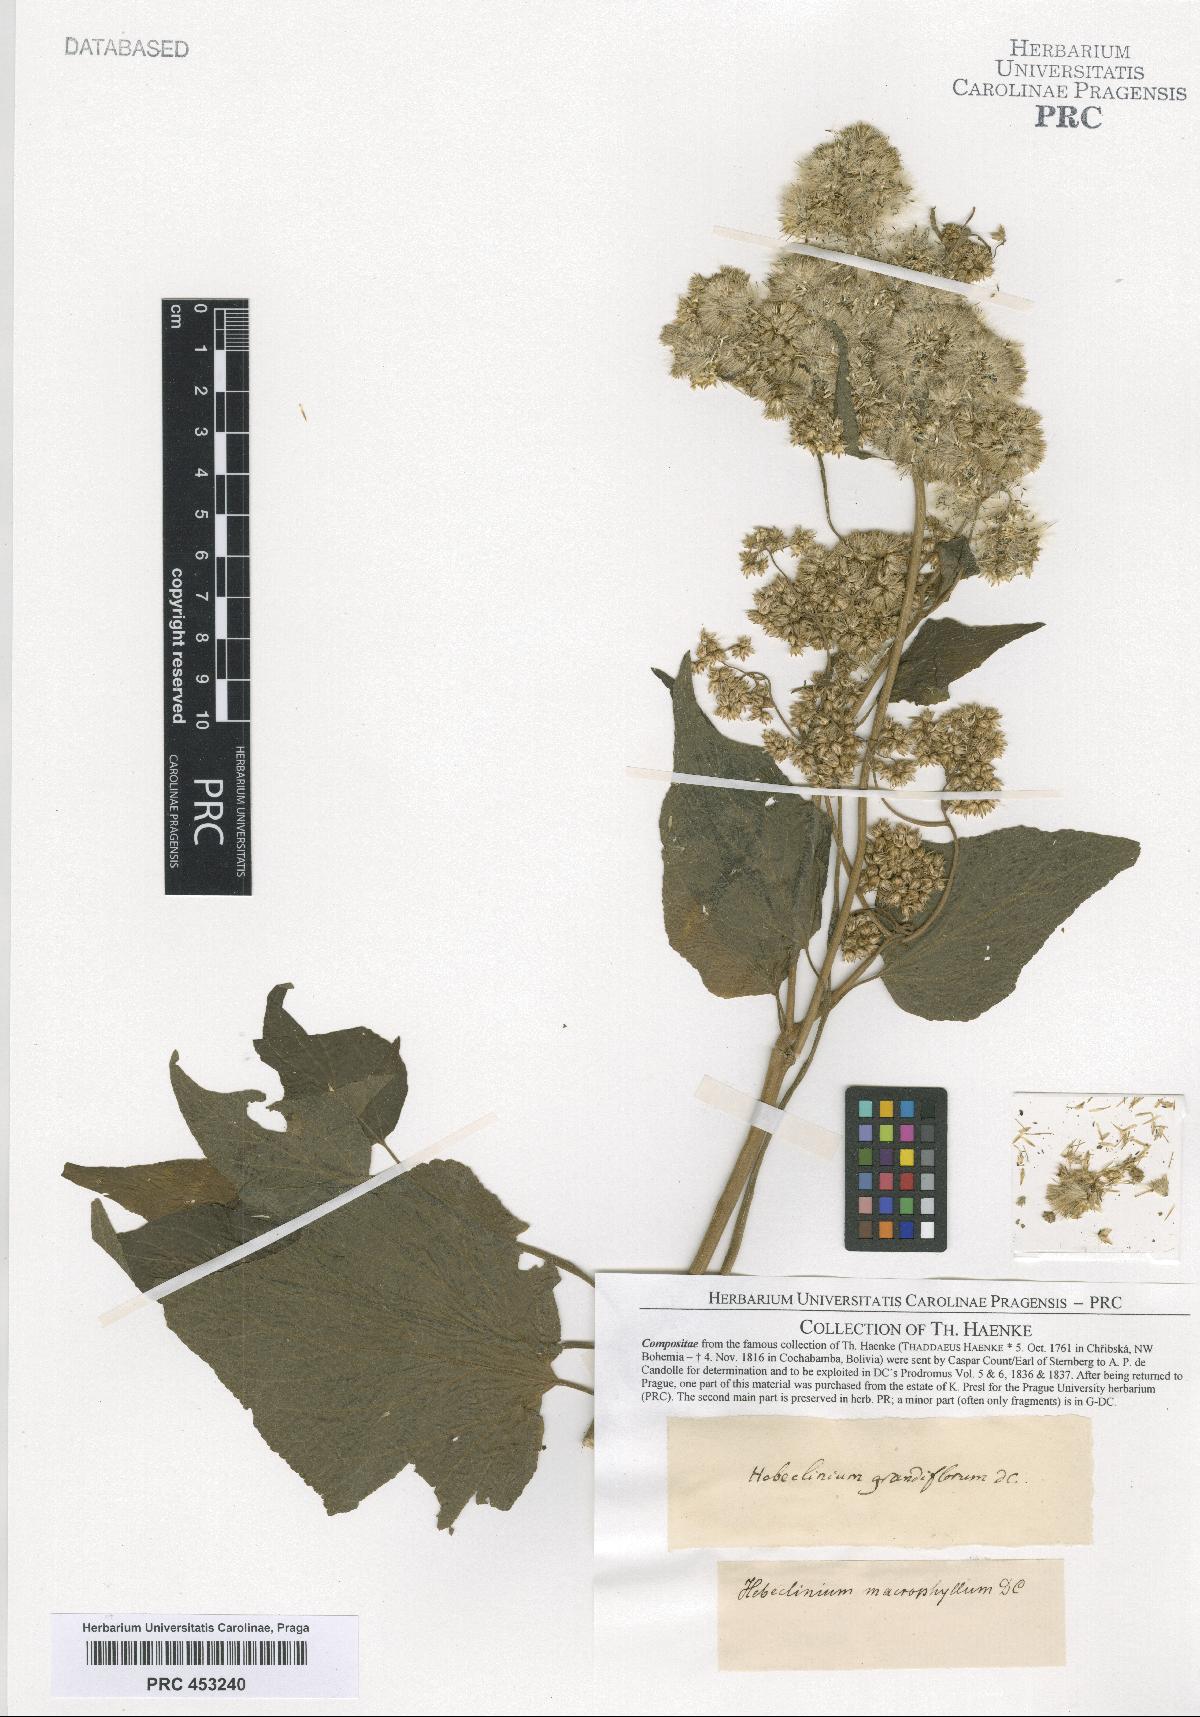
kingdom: Plantae
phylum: Tracheophyta
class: Magnoliopsida
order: Asterales
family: Asteraceae
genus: Hebeclinium
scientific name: Hebeclinium
